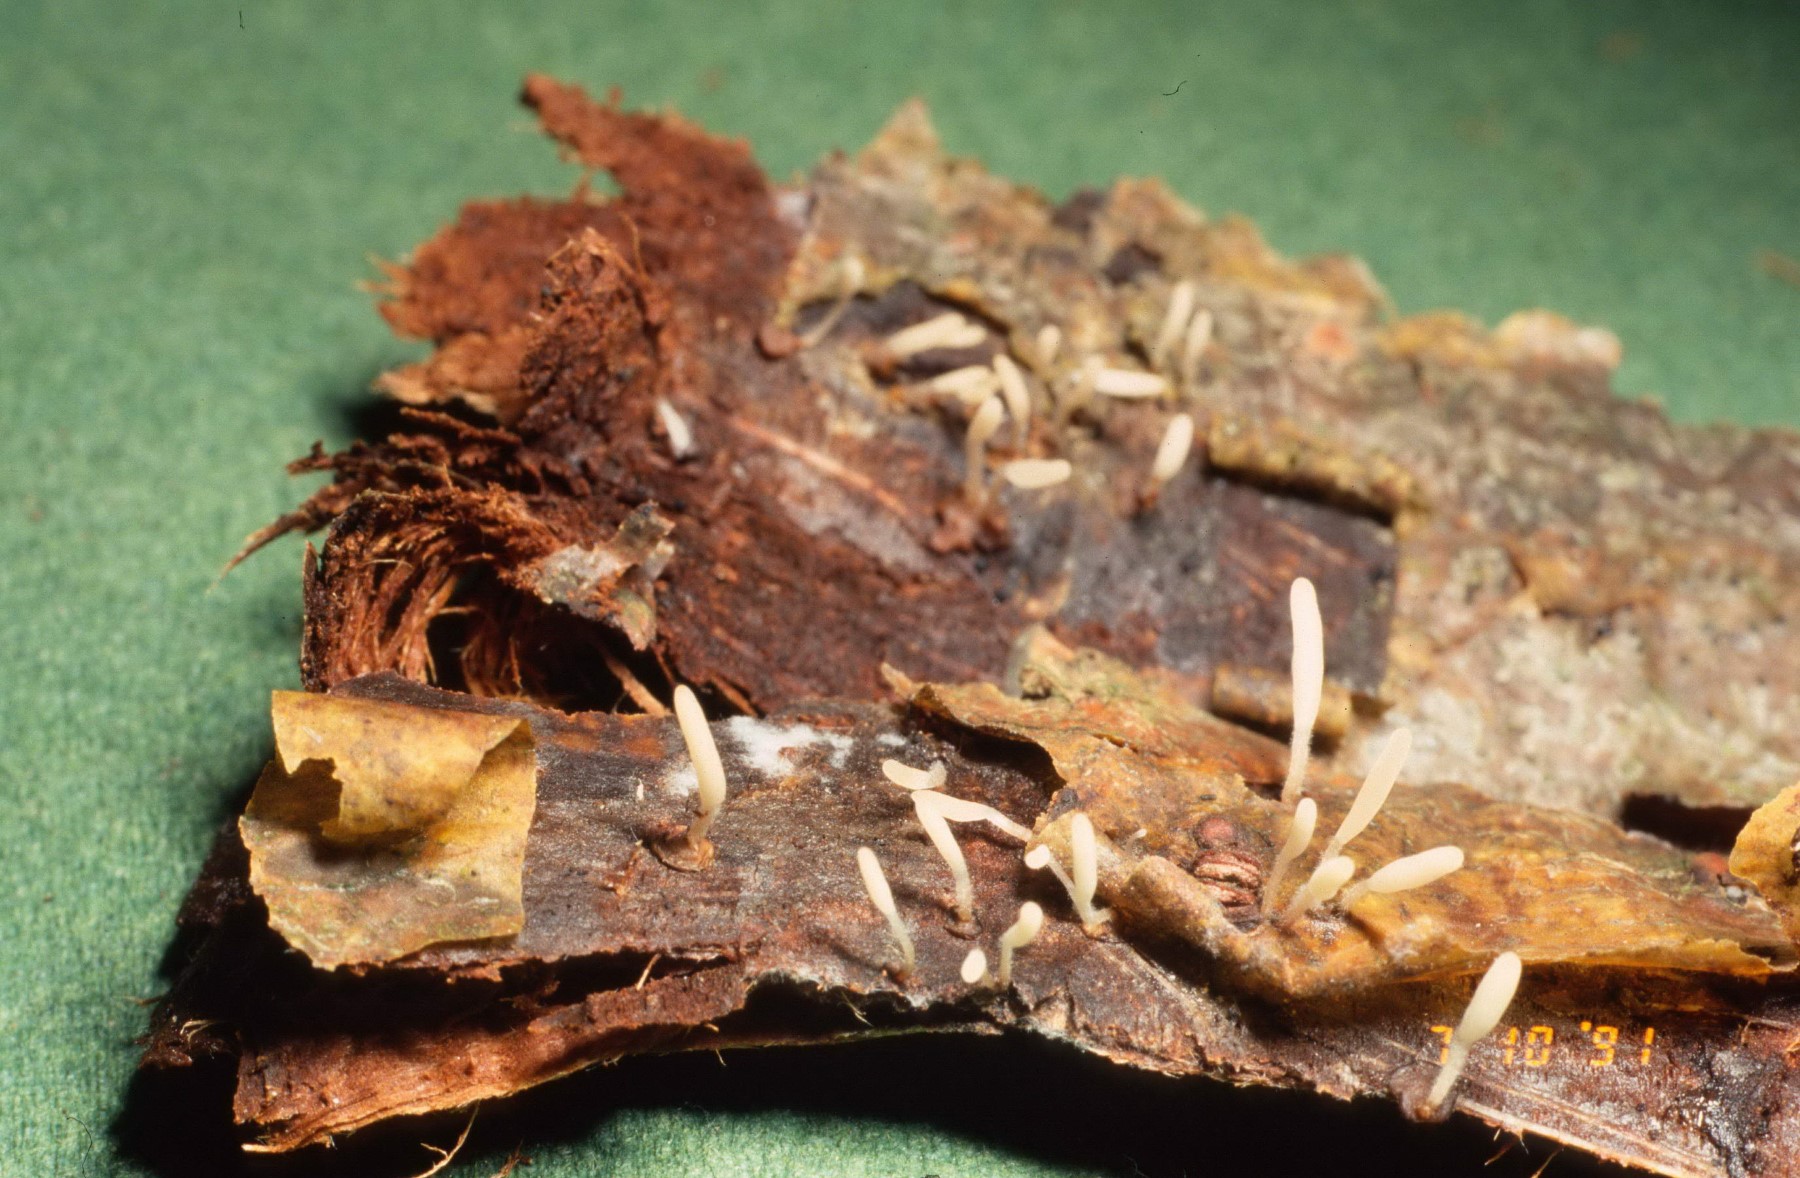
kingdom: Fungi
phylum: Basidiomycota
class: Agaricomycetes
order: Agaricales
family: Typhulaceae
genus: Typhula
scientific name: Typhula spathulata
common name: aske-trådkølle
